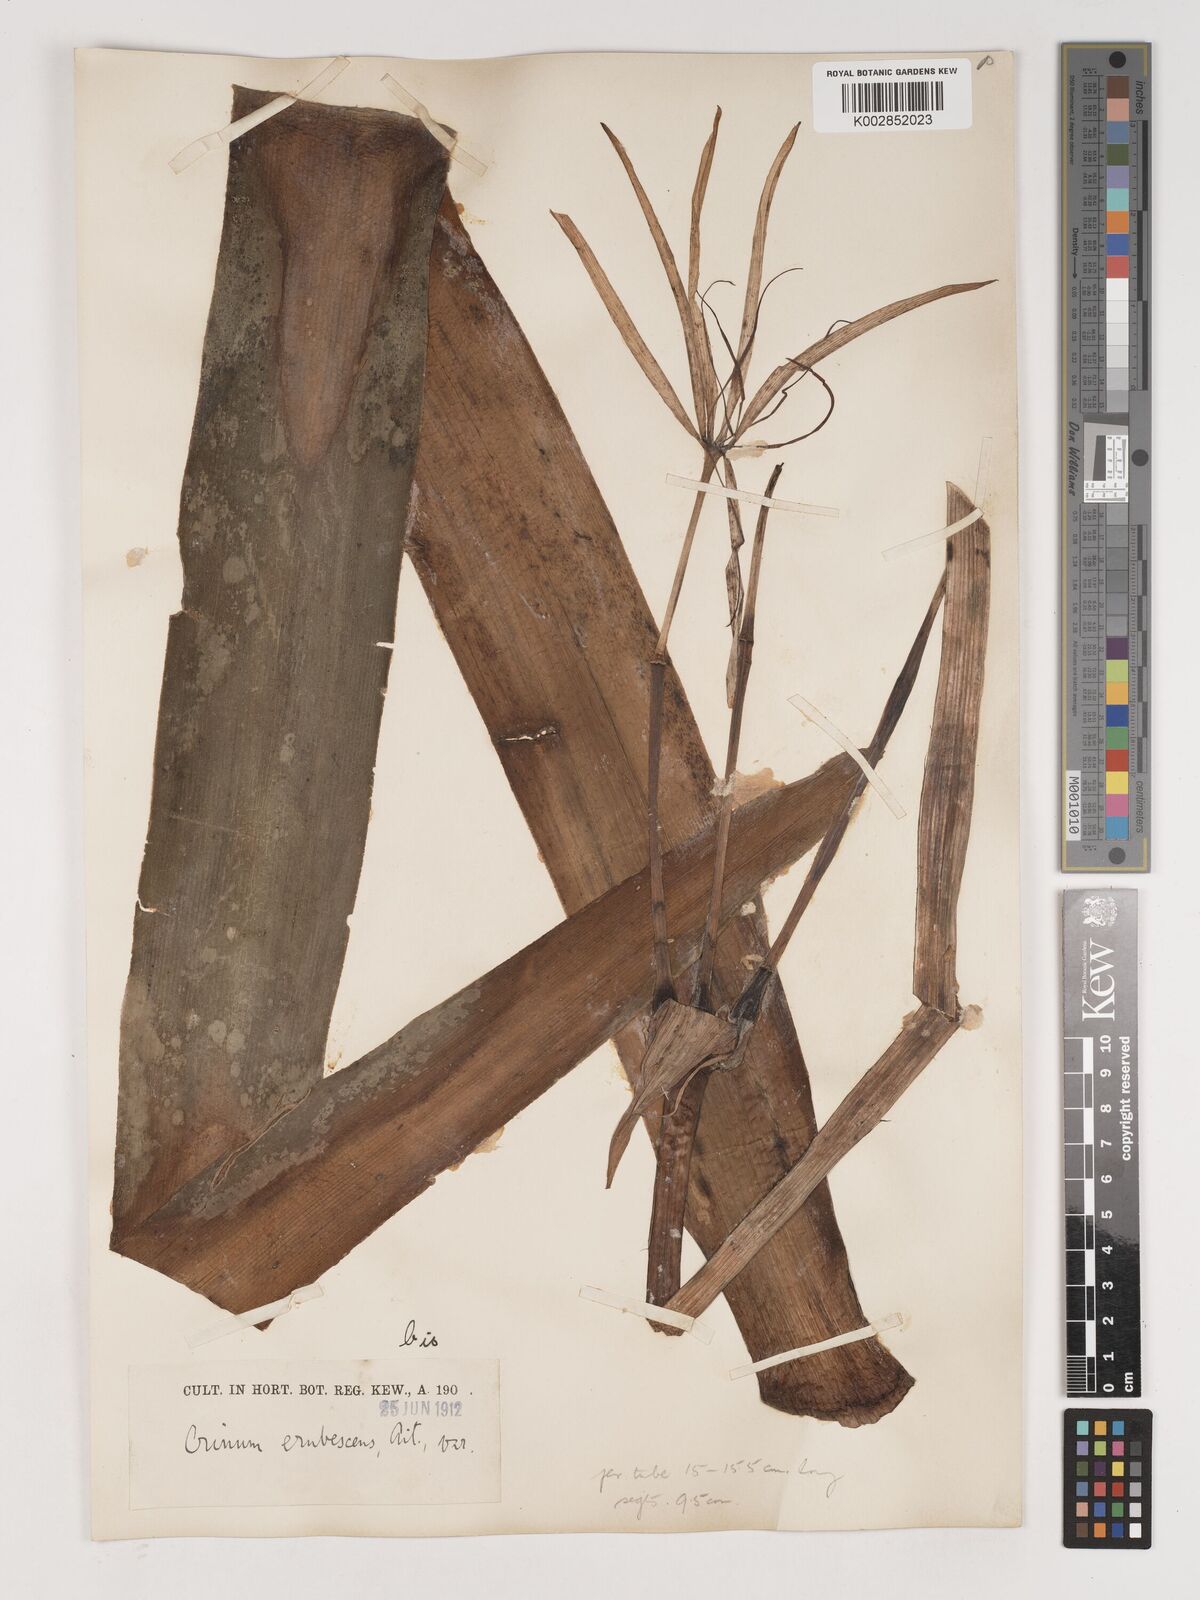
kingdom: Plantae
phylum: Tracheophyta
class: Liliopsida
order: Asparagales
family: Amaryllidaceae
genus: Crinum
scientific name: Crinum erubescens
